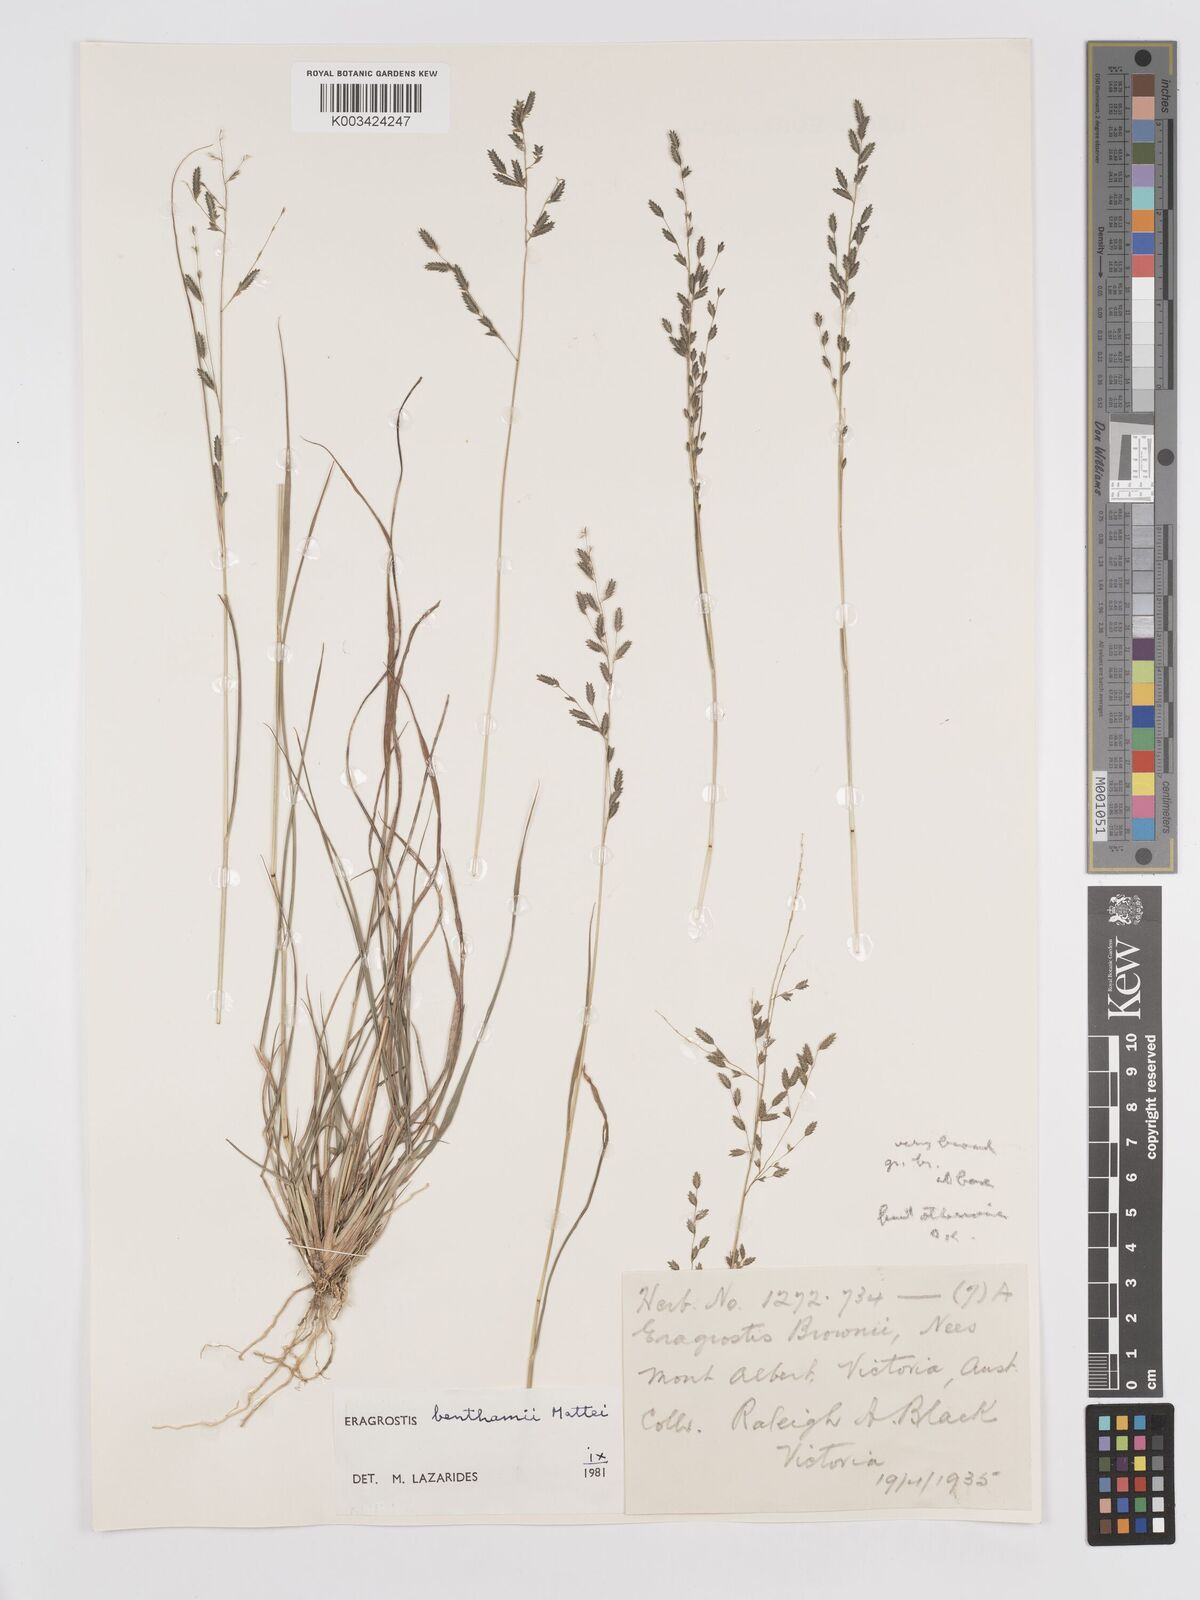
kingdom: Plantae
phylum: Tracheophyta
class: Liliopsida
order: Poales
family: Poaceae
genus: Eragrostis
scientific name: Eragrostis brownii
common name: Lovegrass
